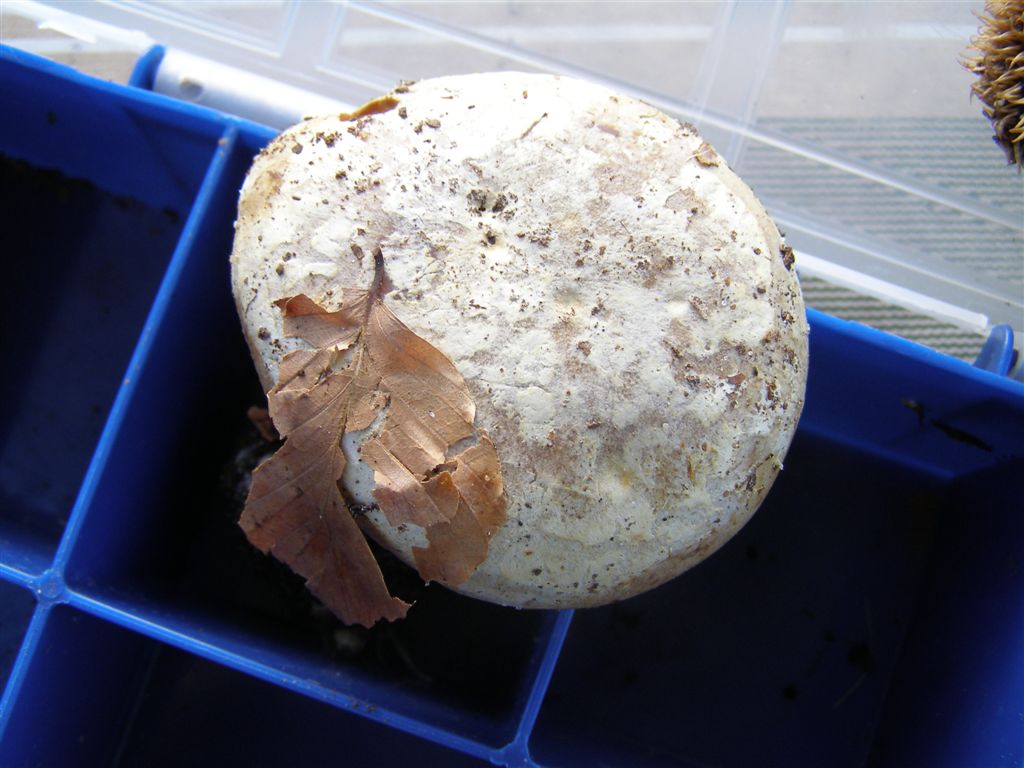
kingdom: Fungi
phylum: Basidiomycota
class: Agaricomycetes
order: Agaricales
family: Cortinariaceae
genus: Cortinarius
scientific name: Cortinarius foetens
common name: stribet slørhat
